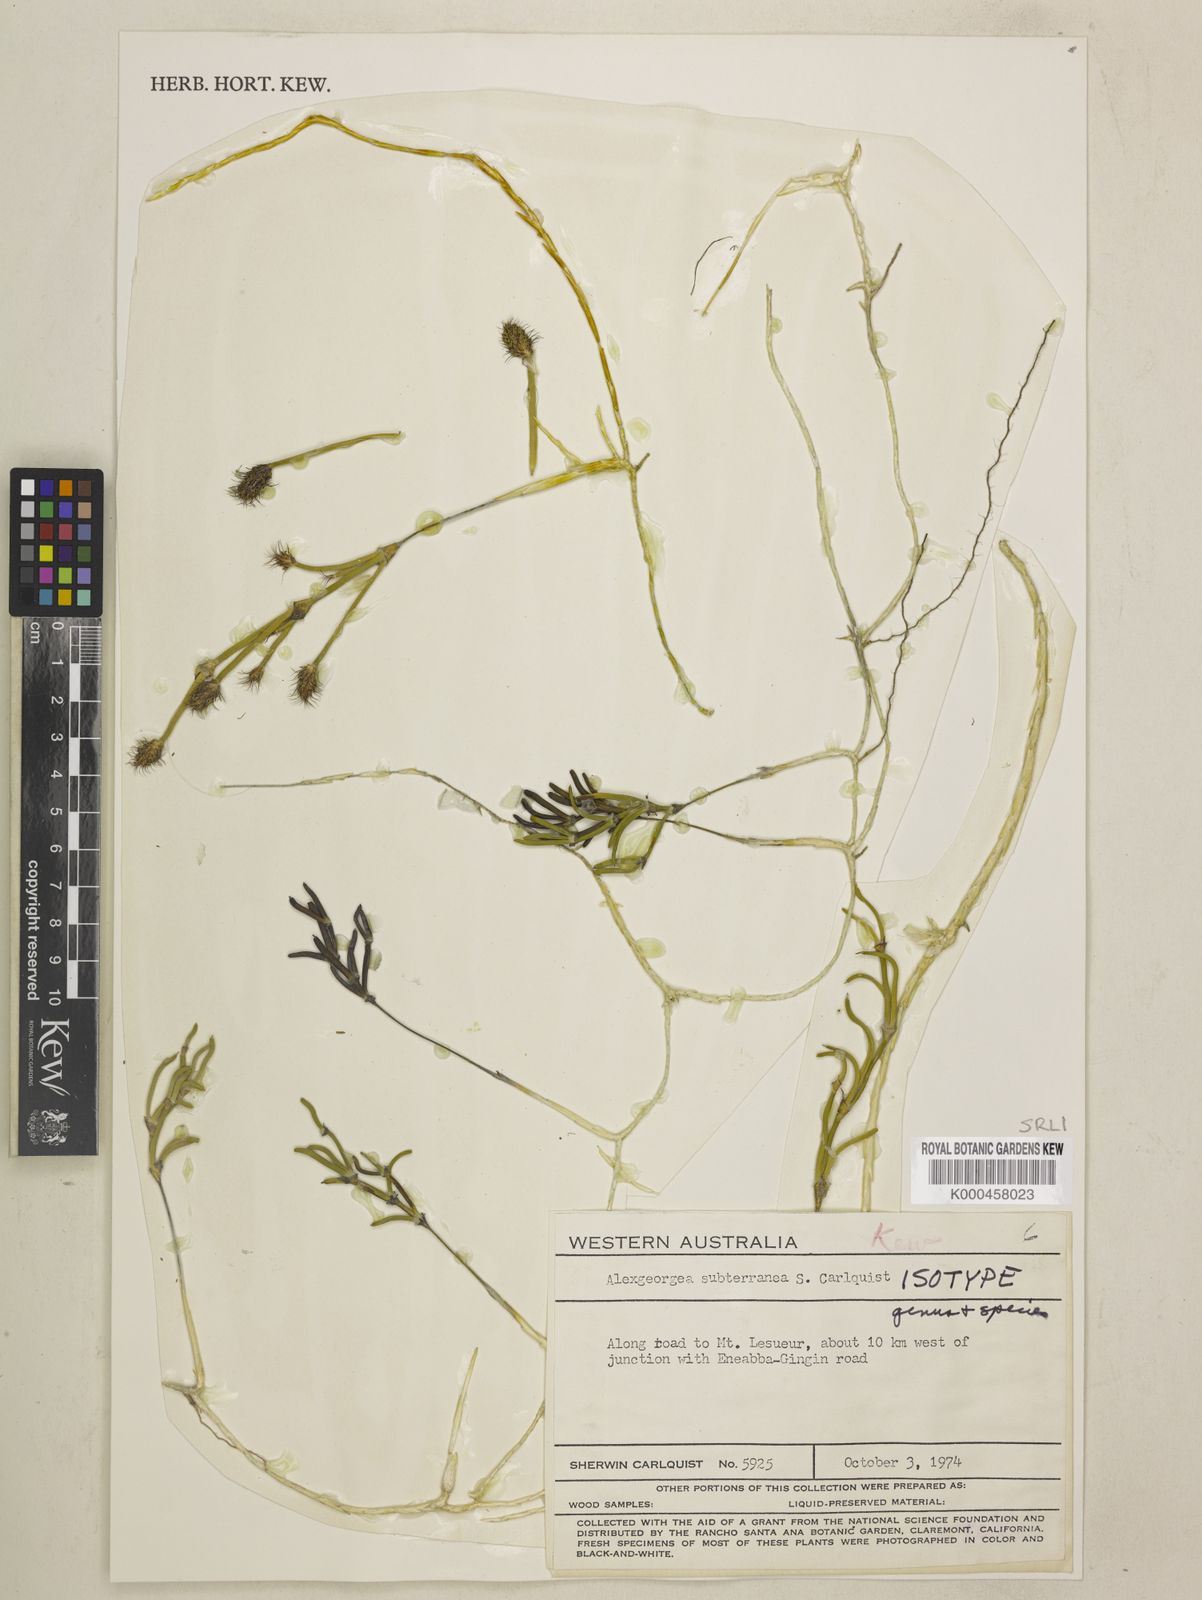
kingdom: Plantae
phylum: Tracheophyta
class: Liliopsida
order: Poales
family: Restionaceae
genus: Alexgeorgea
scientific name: Alexgeorgea subterranea
